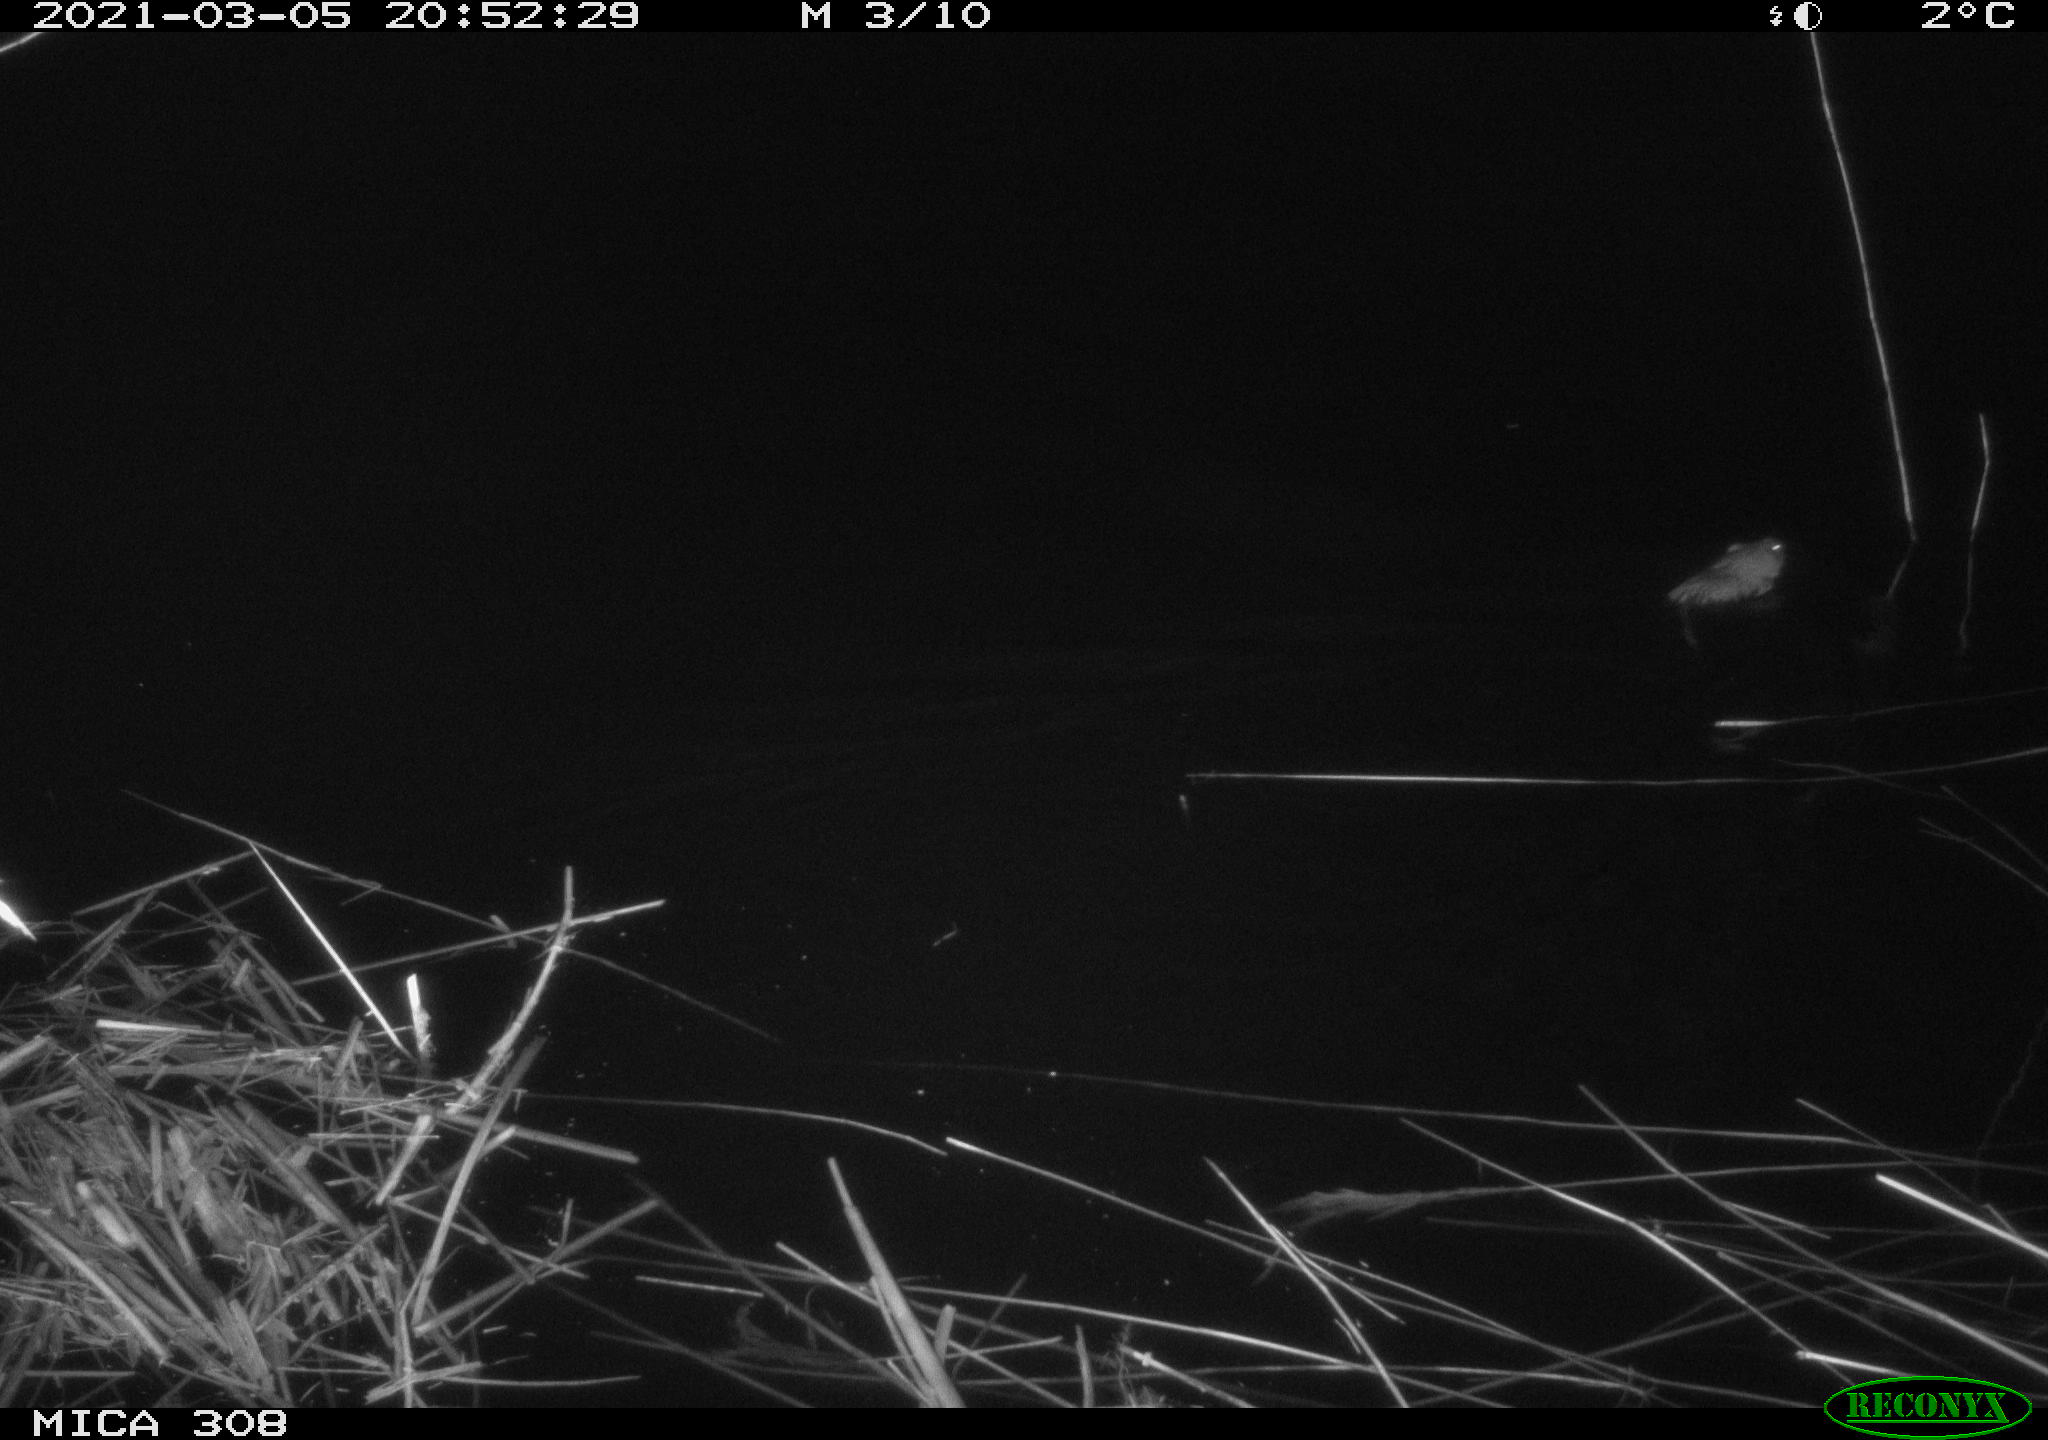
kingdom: Animalia
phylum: Chordata
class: Mammalia
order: Rodentia
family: Cricetidae
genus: Ondatra
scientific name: Ondatra zibethicus
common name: Muskrat
